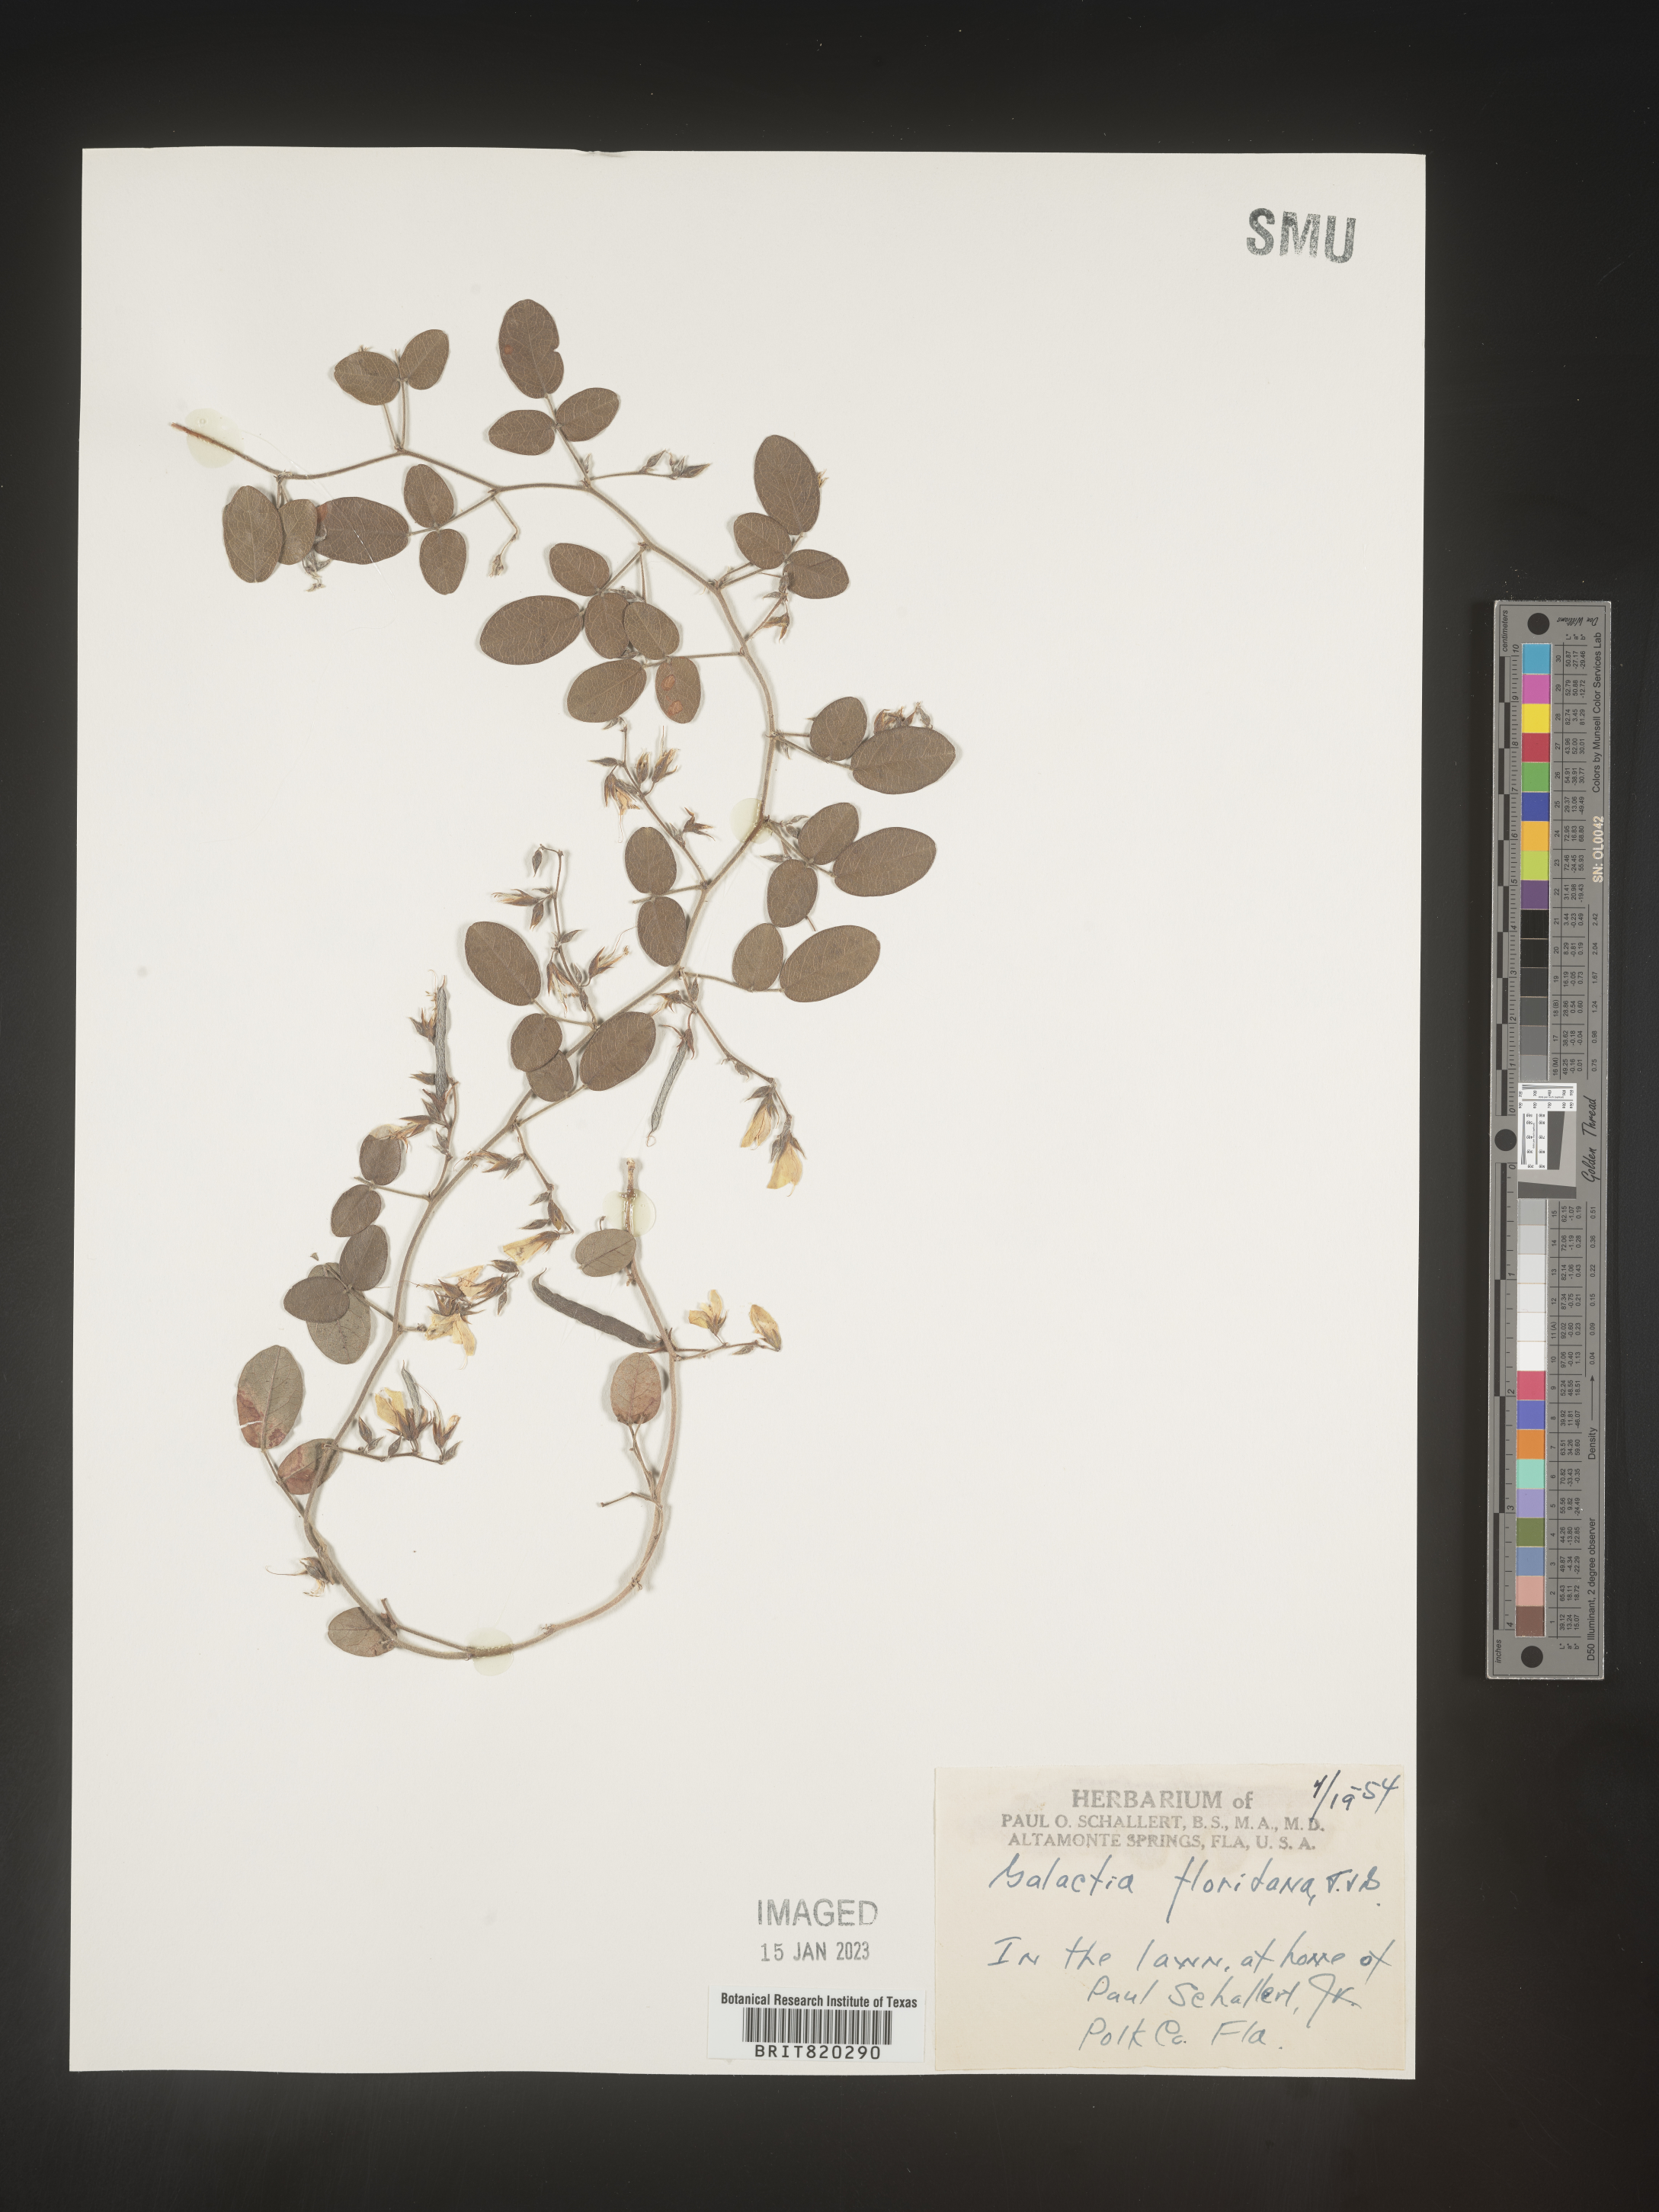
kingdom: Plantae
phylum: Tracheophyta
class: Magnoliopsida
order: Fabales
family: Fabaceae
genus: Galactia
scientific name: Galactia floridana
